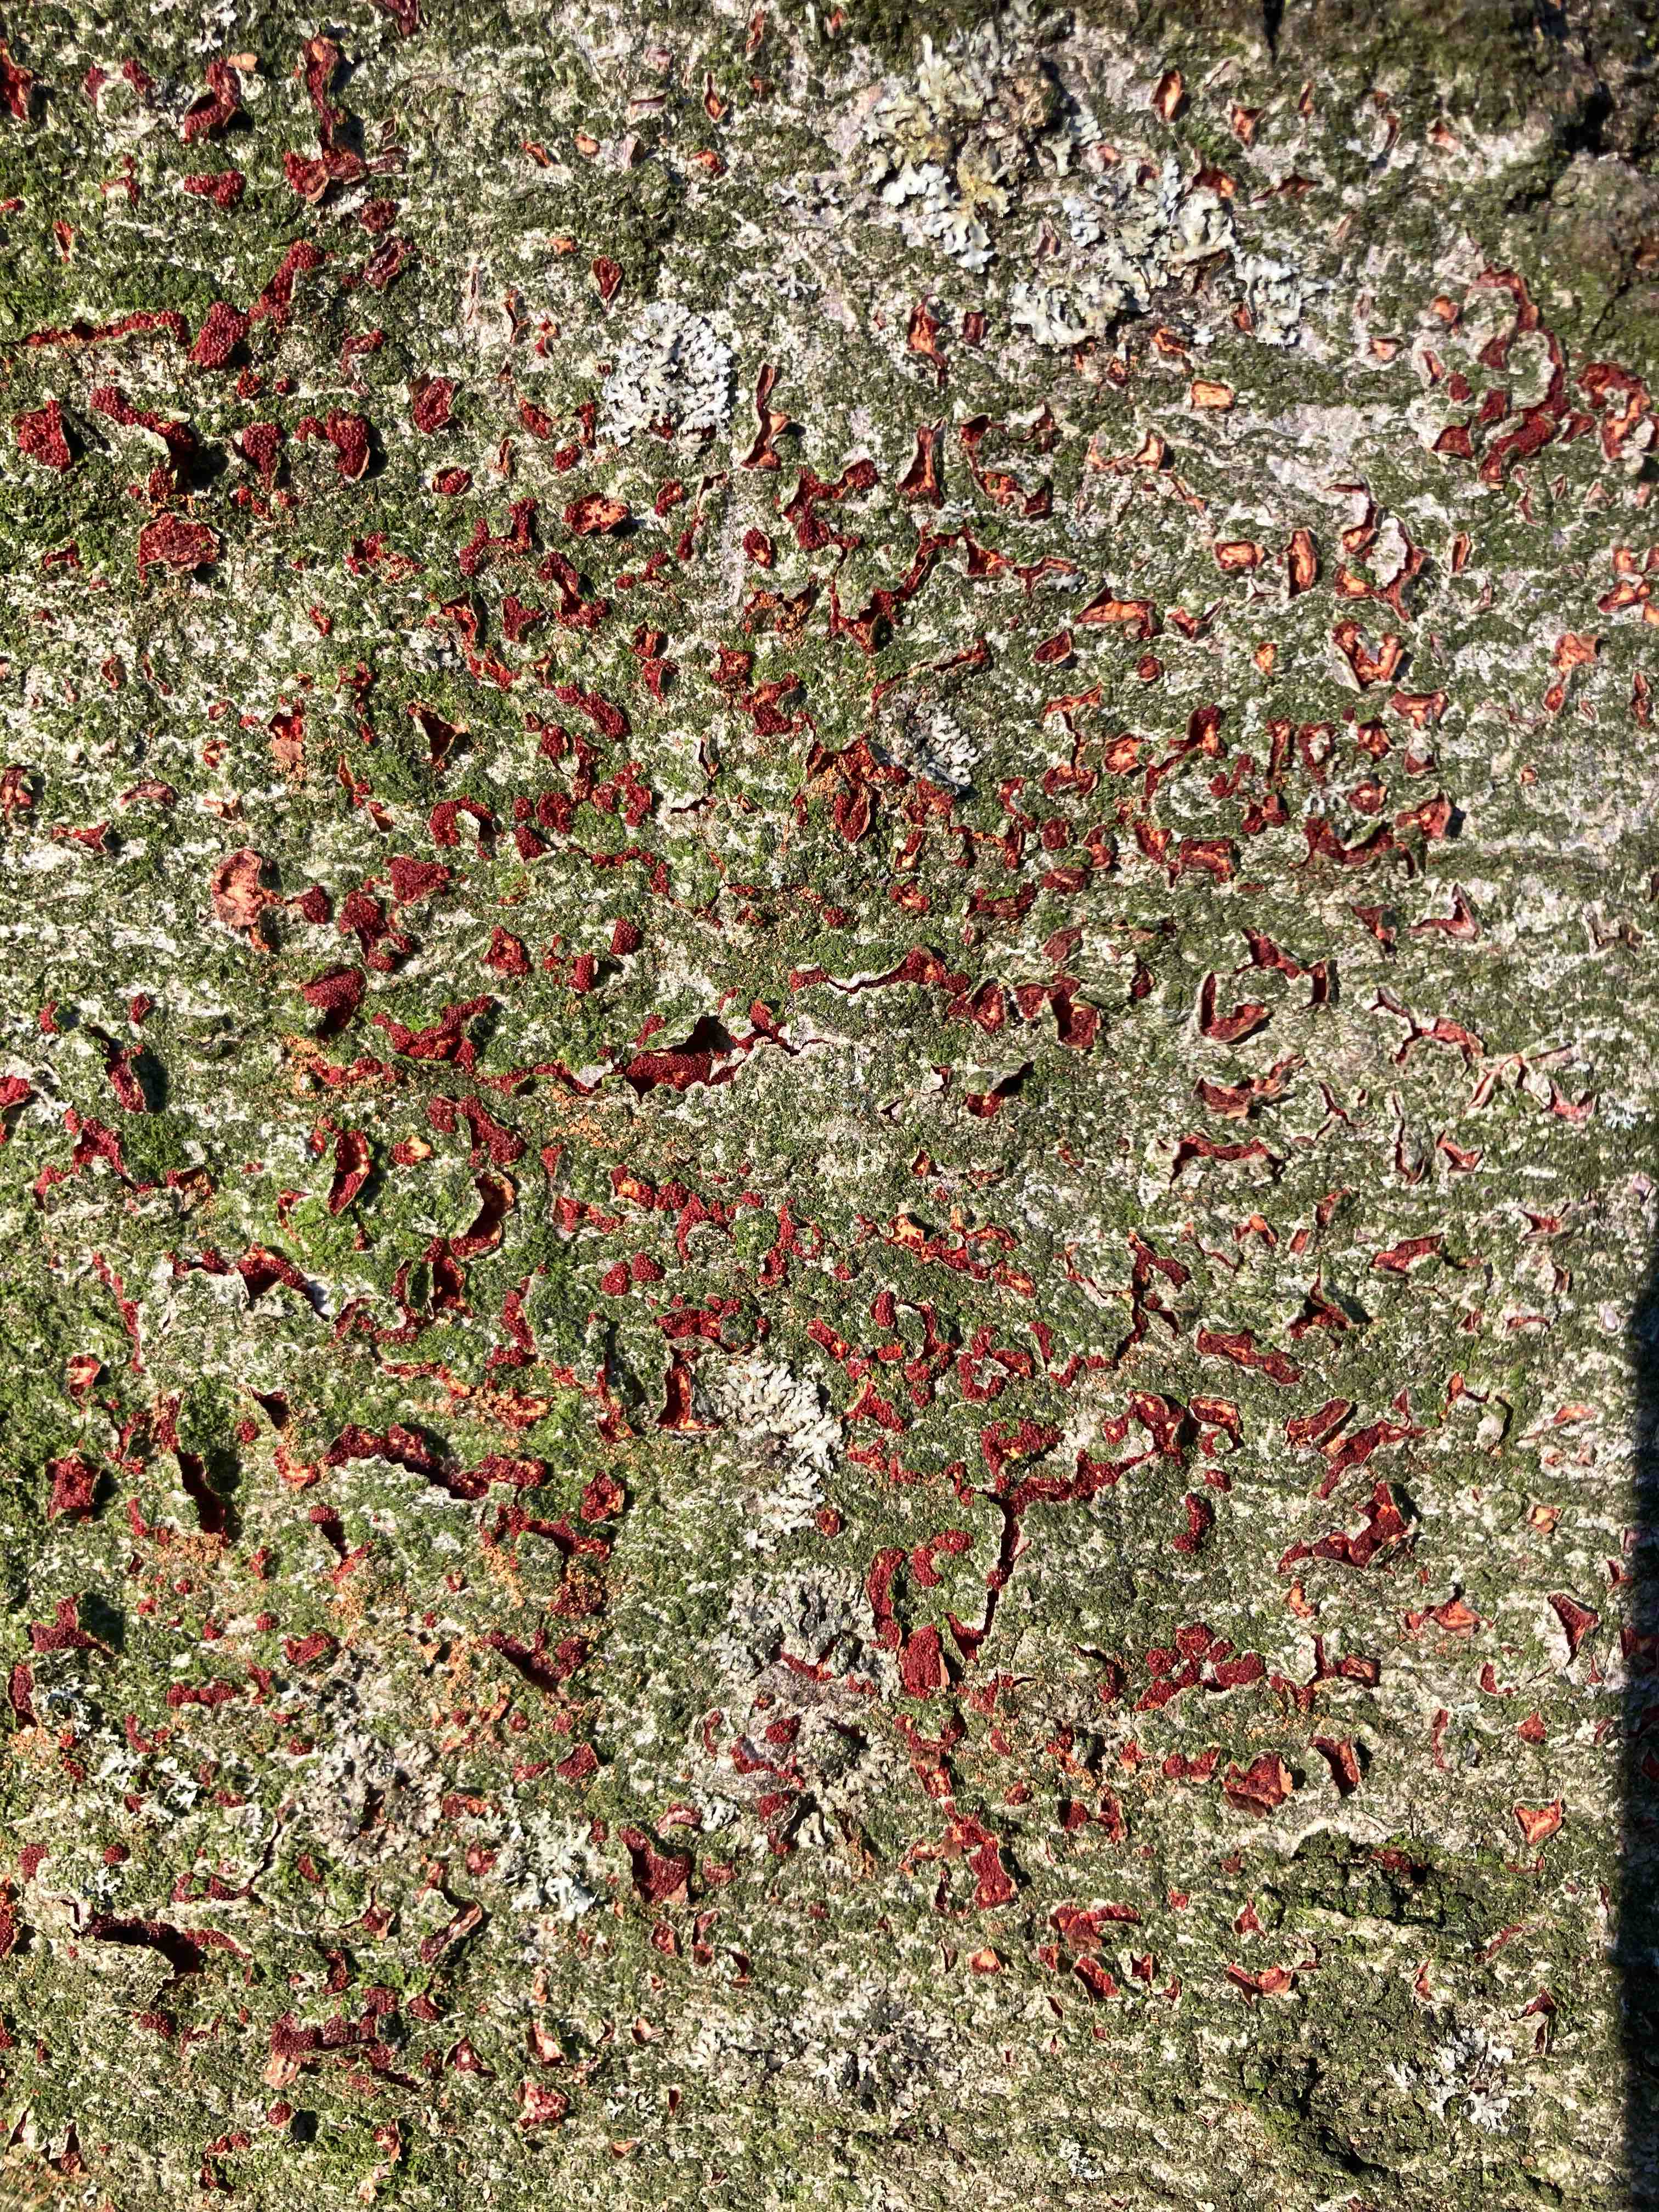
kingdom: Fungi
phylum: Ascomycota
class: Sordariomycetes
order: Hypocreales
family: Nectriaceae
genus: Neonectria
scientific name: Neonectria coccinea
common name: bøgebark-cinnobersvamp
